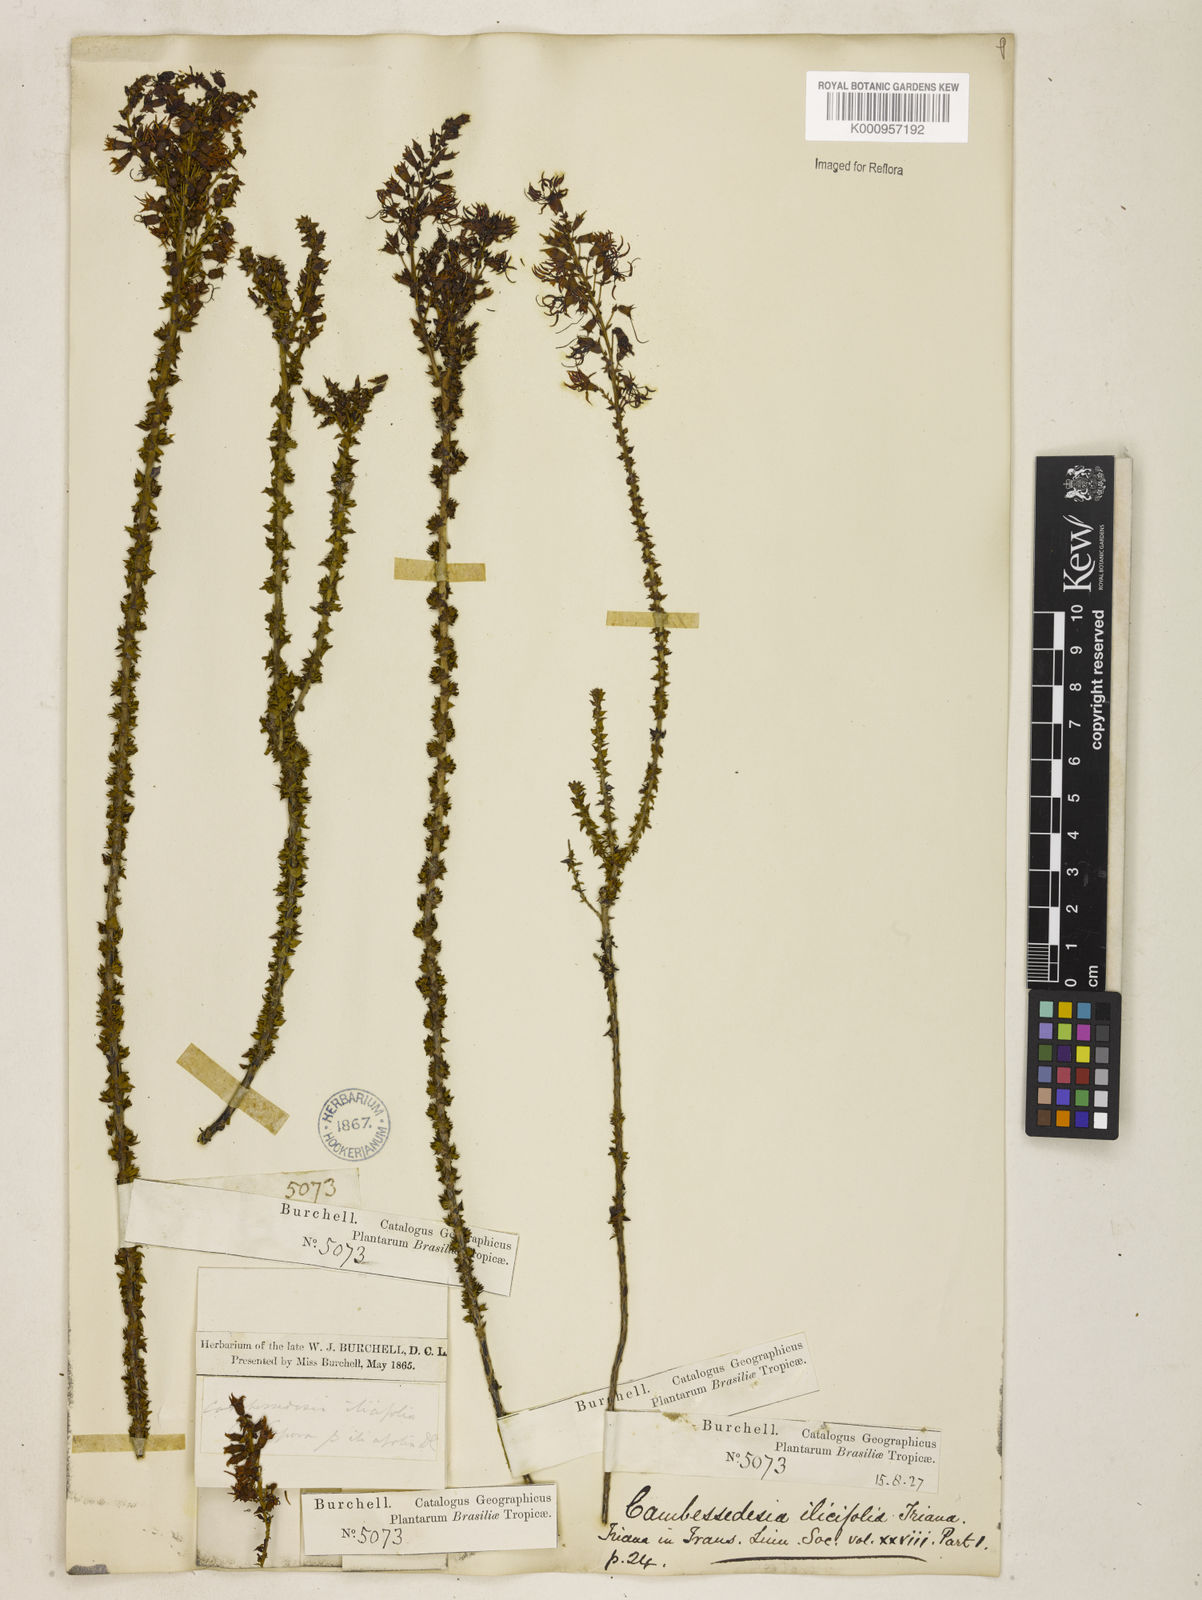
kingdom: Plantae
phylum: Tracheophyta
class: Magnoliopsida
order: Myrtales
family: Melastomataceae
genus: Cambessedesia
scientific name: Cambessedesia espora
